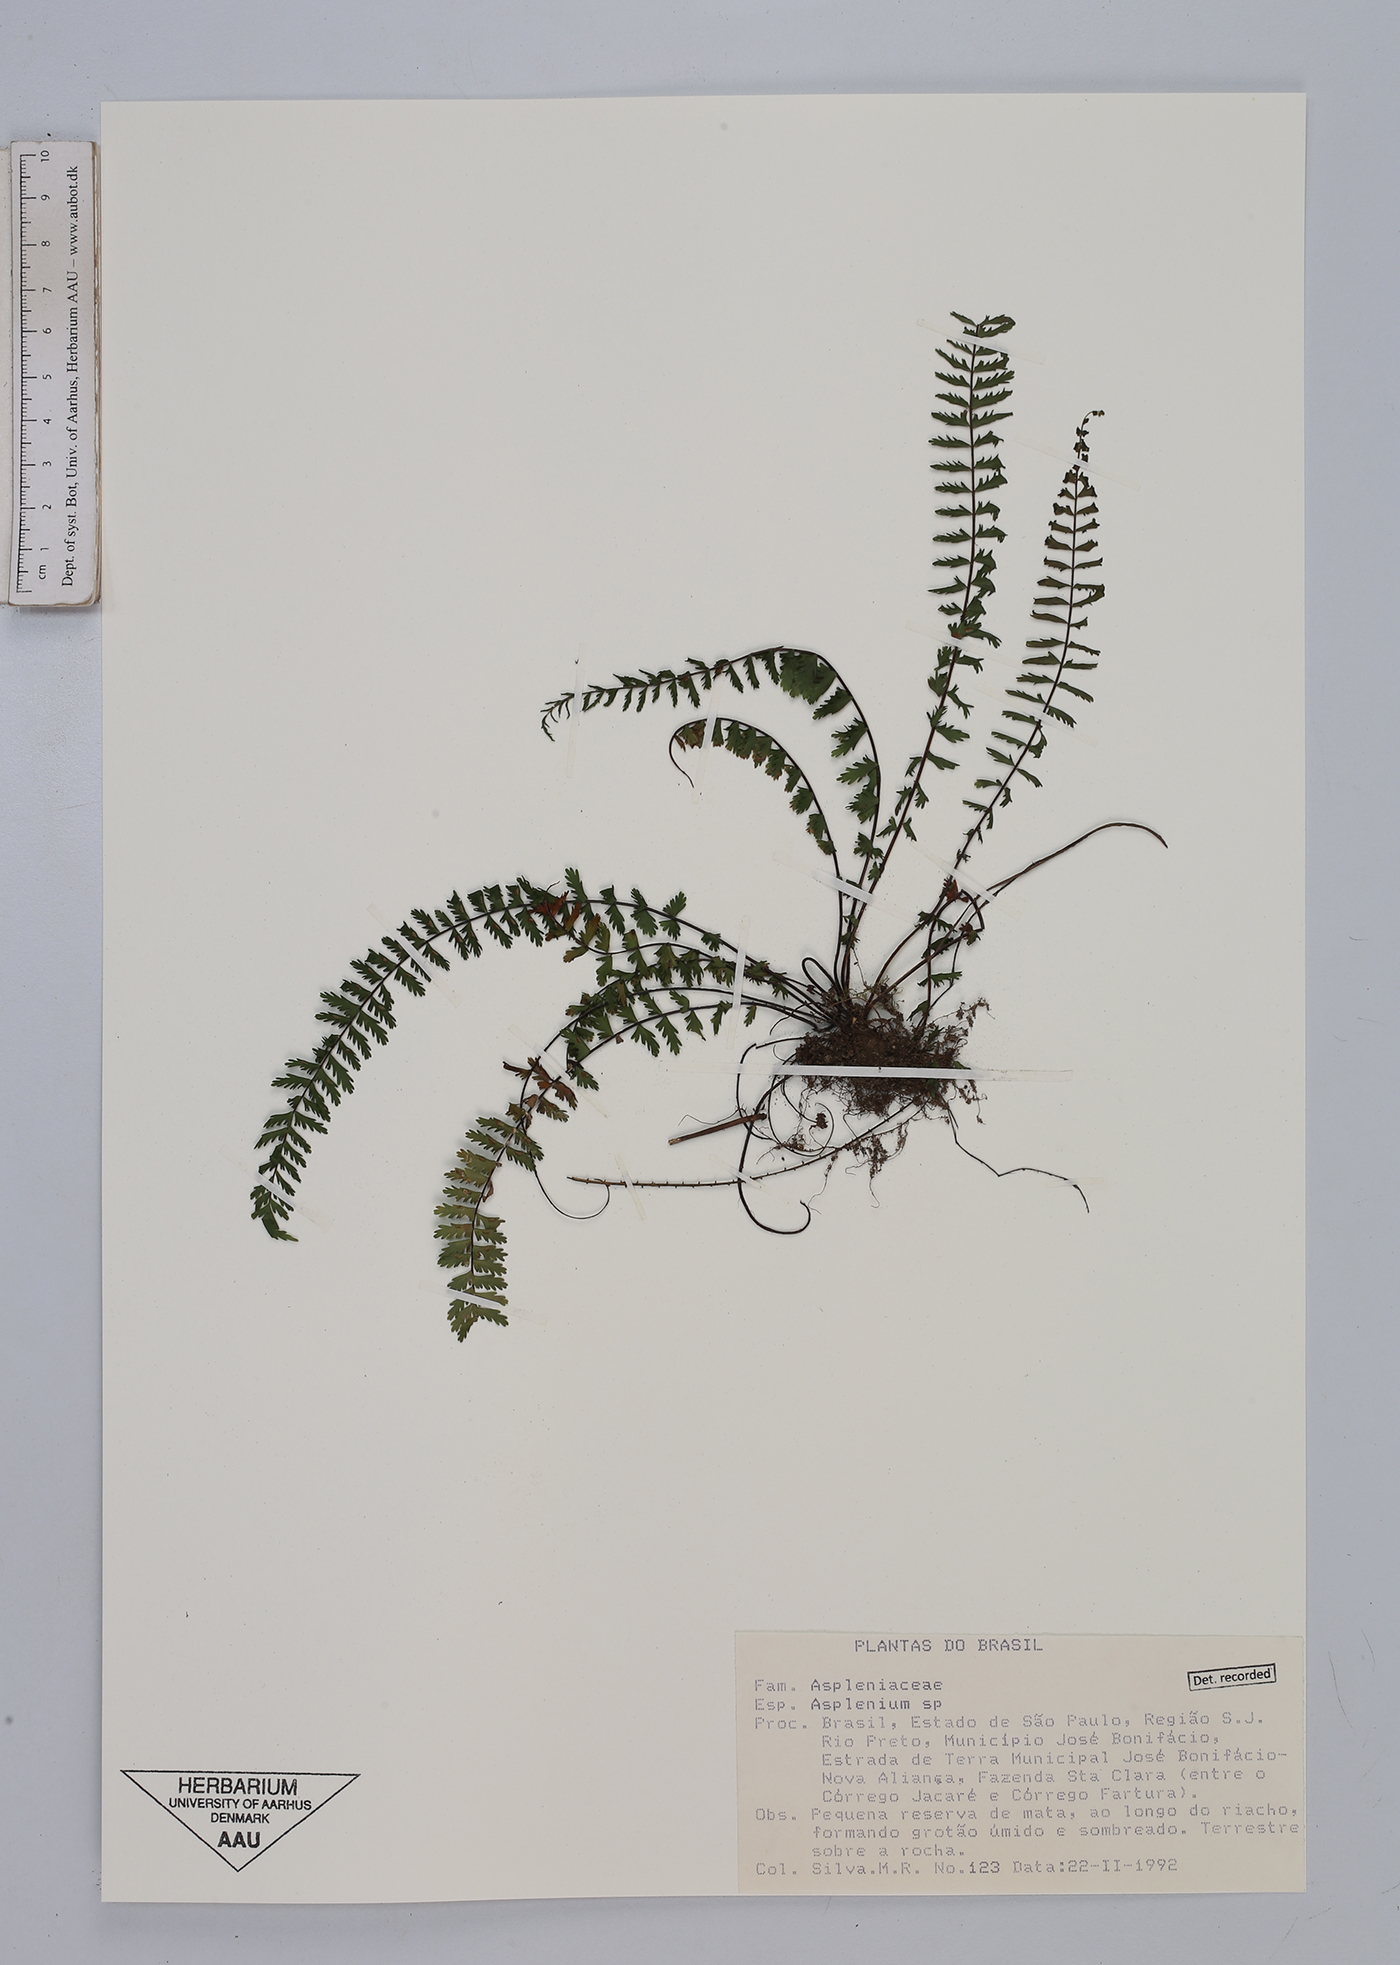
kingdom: Plantae
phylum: Tracheophyta
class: Polypodiopsida
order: Polypodiales
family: Aspleniaceae
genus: Asplenium
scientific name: Asplenium
